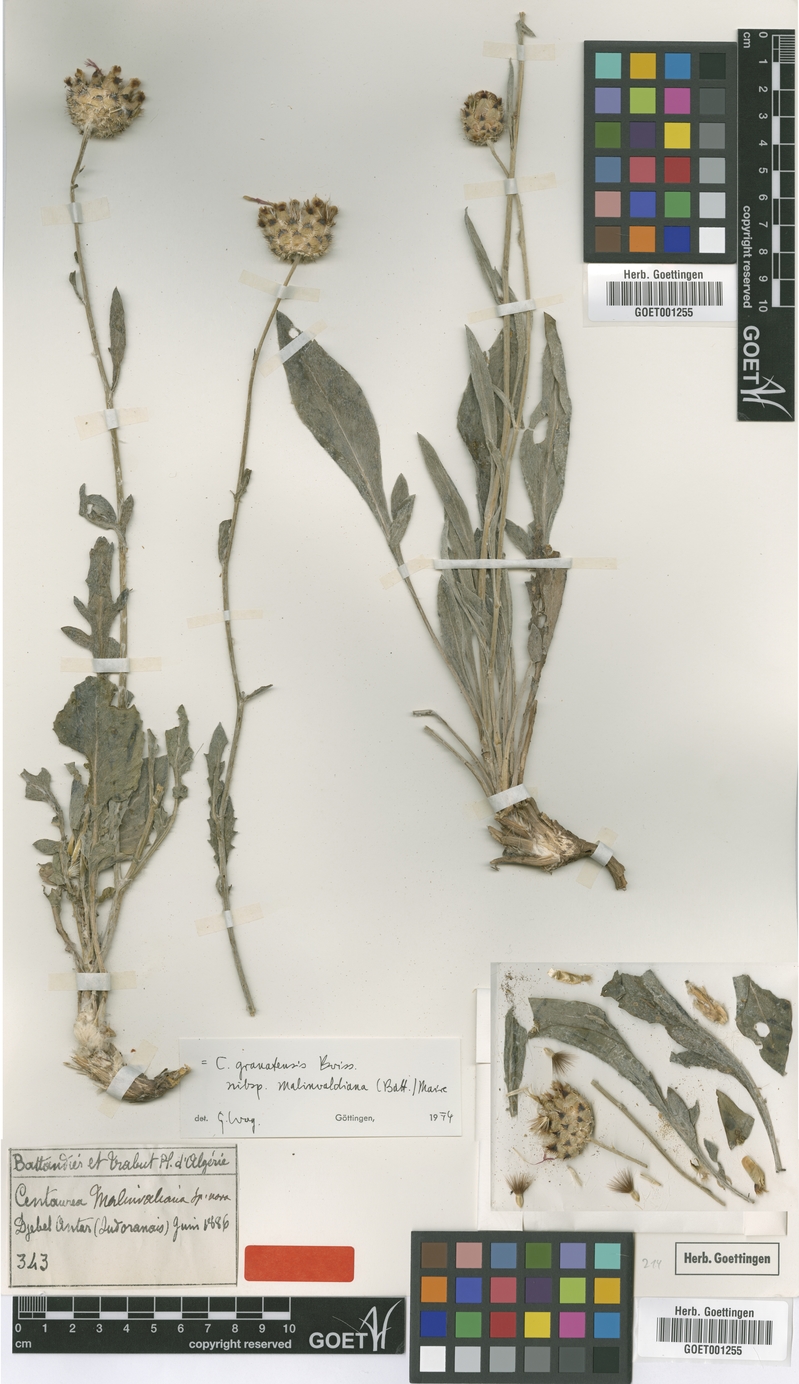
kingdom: Plantae
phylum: Tracheophyta
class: Magnoliopsida
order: Asterales
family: Asteraceae
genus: Centaurea
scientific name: Centaurea malinvaldiana
